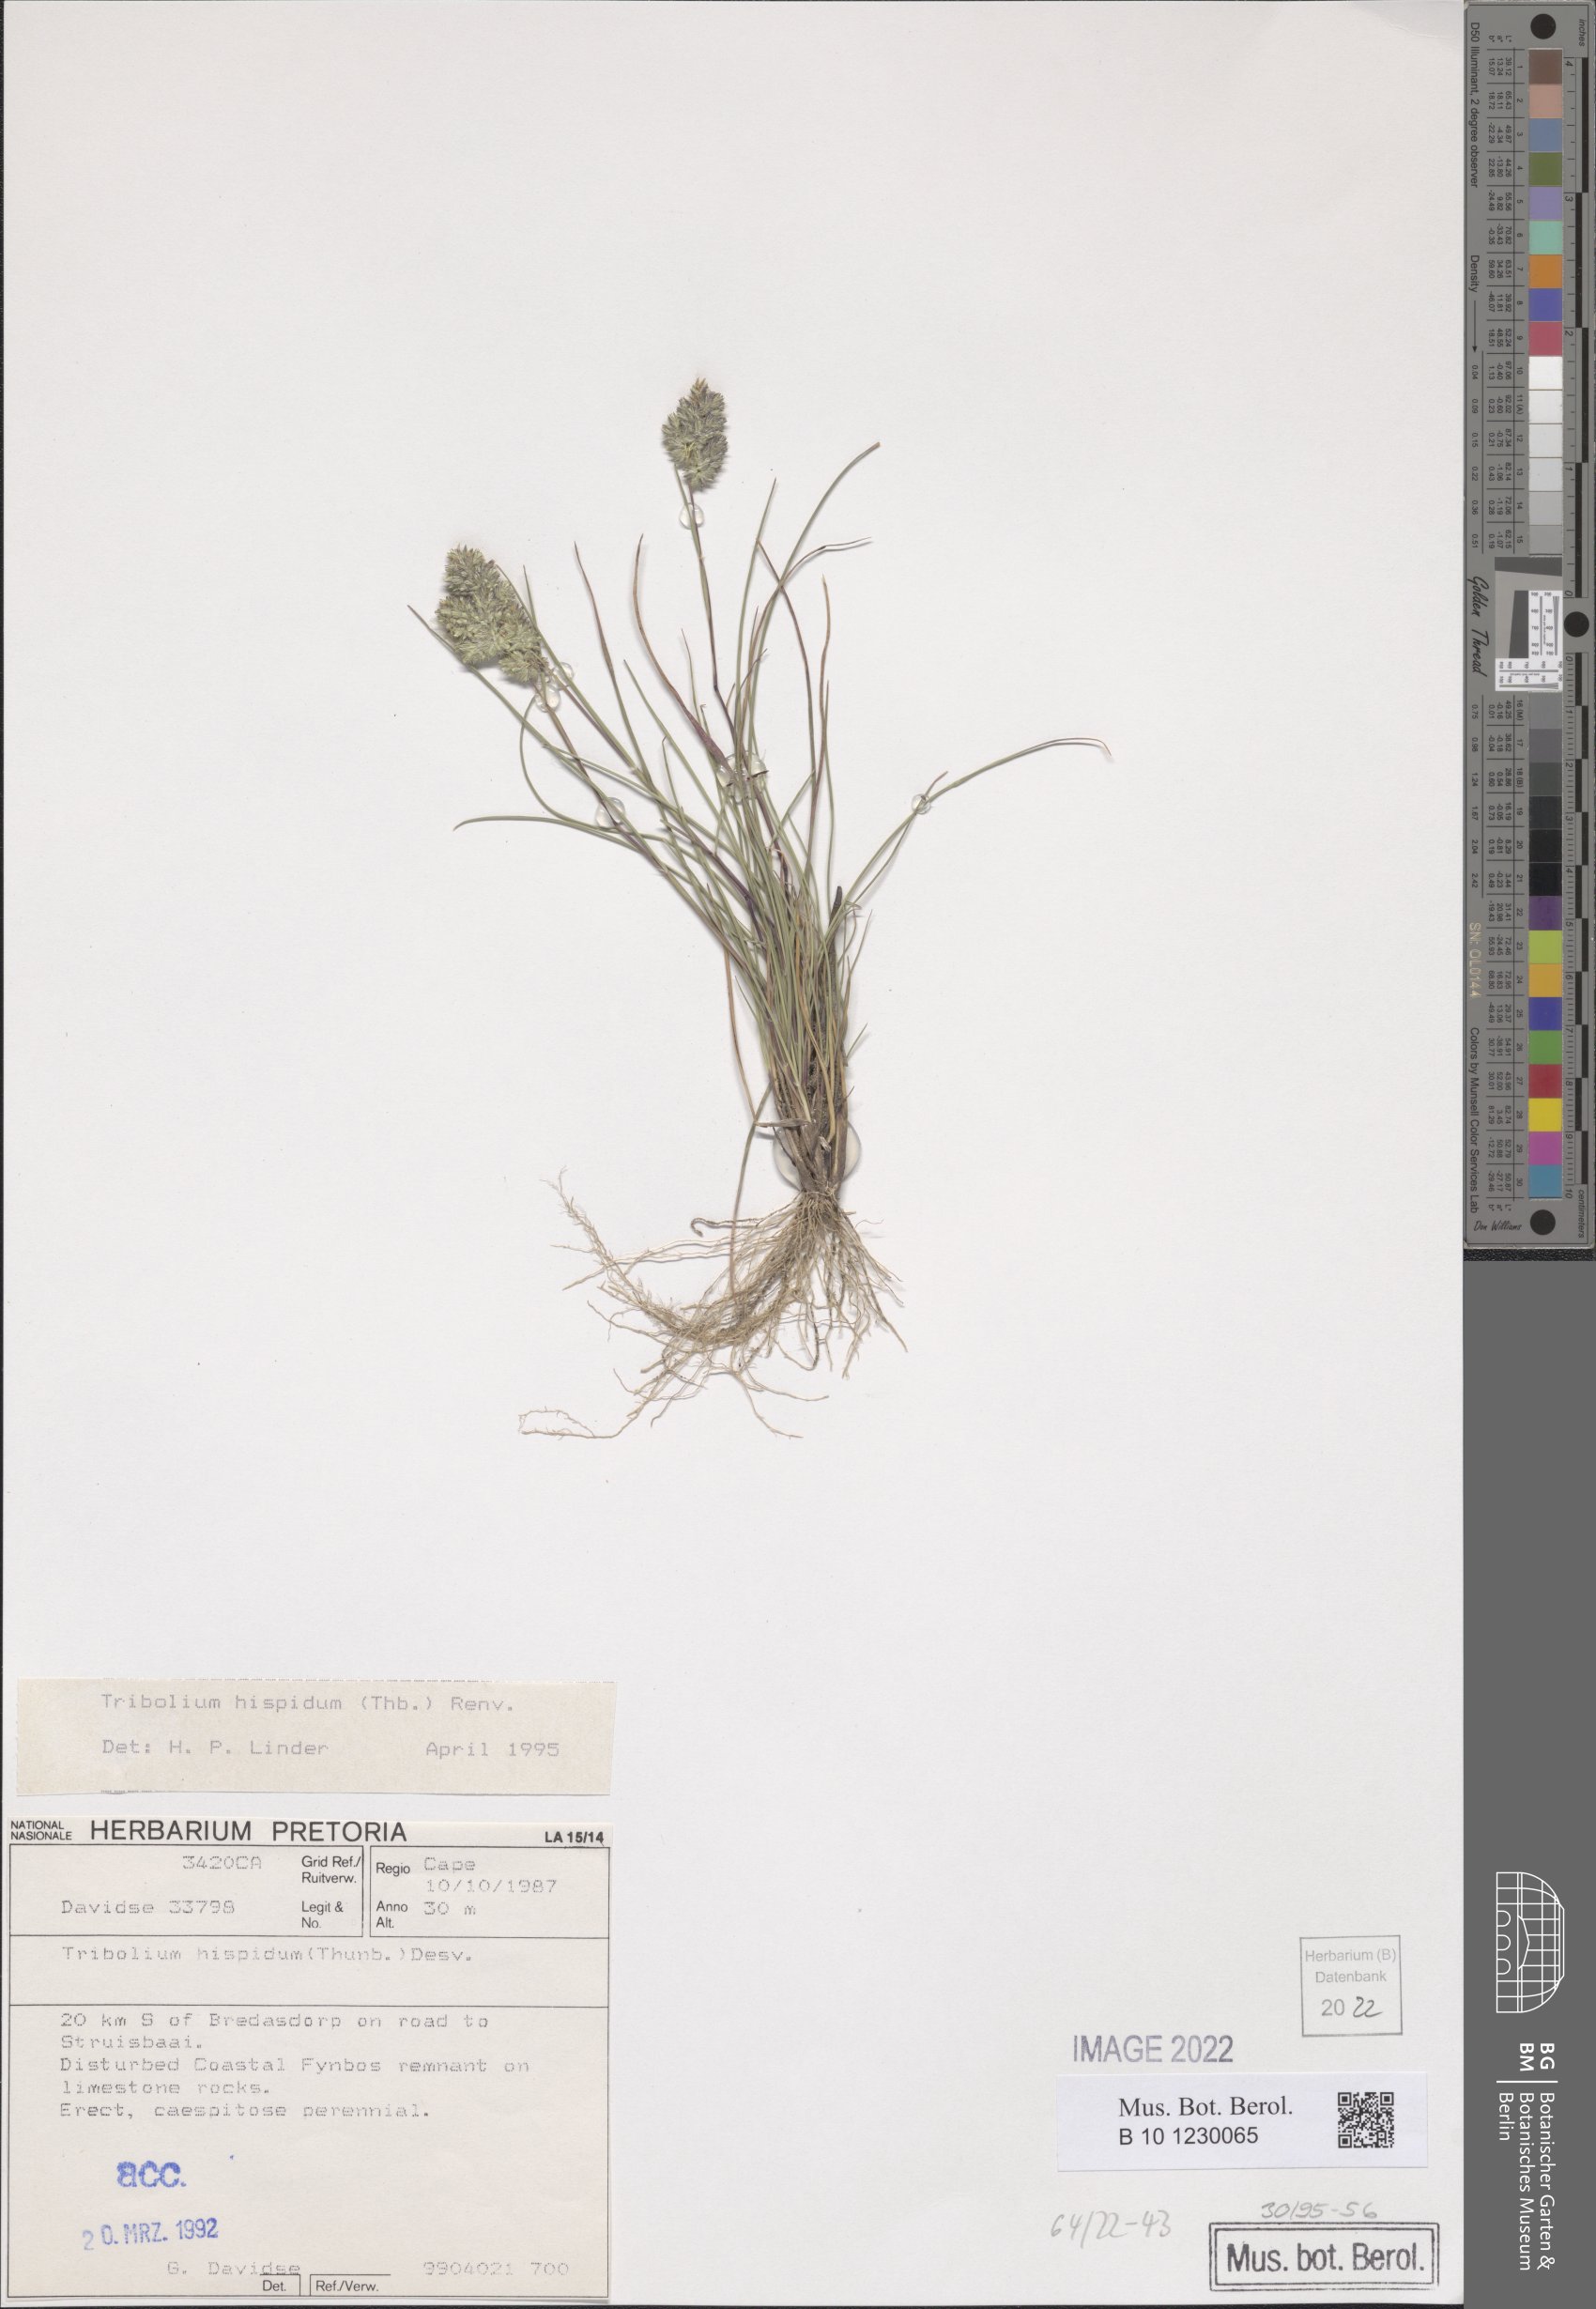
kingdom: Plantae
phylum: Tracheophyta
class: Liliopsida
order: Poales
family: Poaceae
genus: Tribolium
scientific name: Tribolium hispidum
